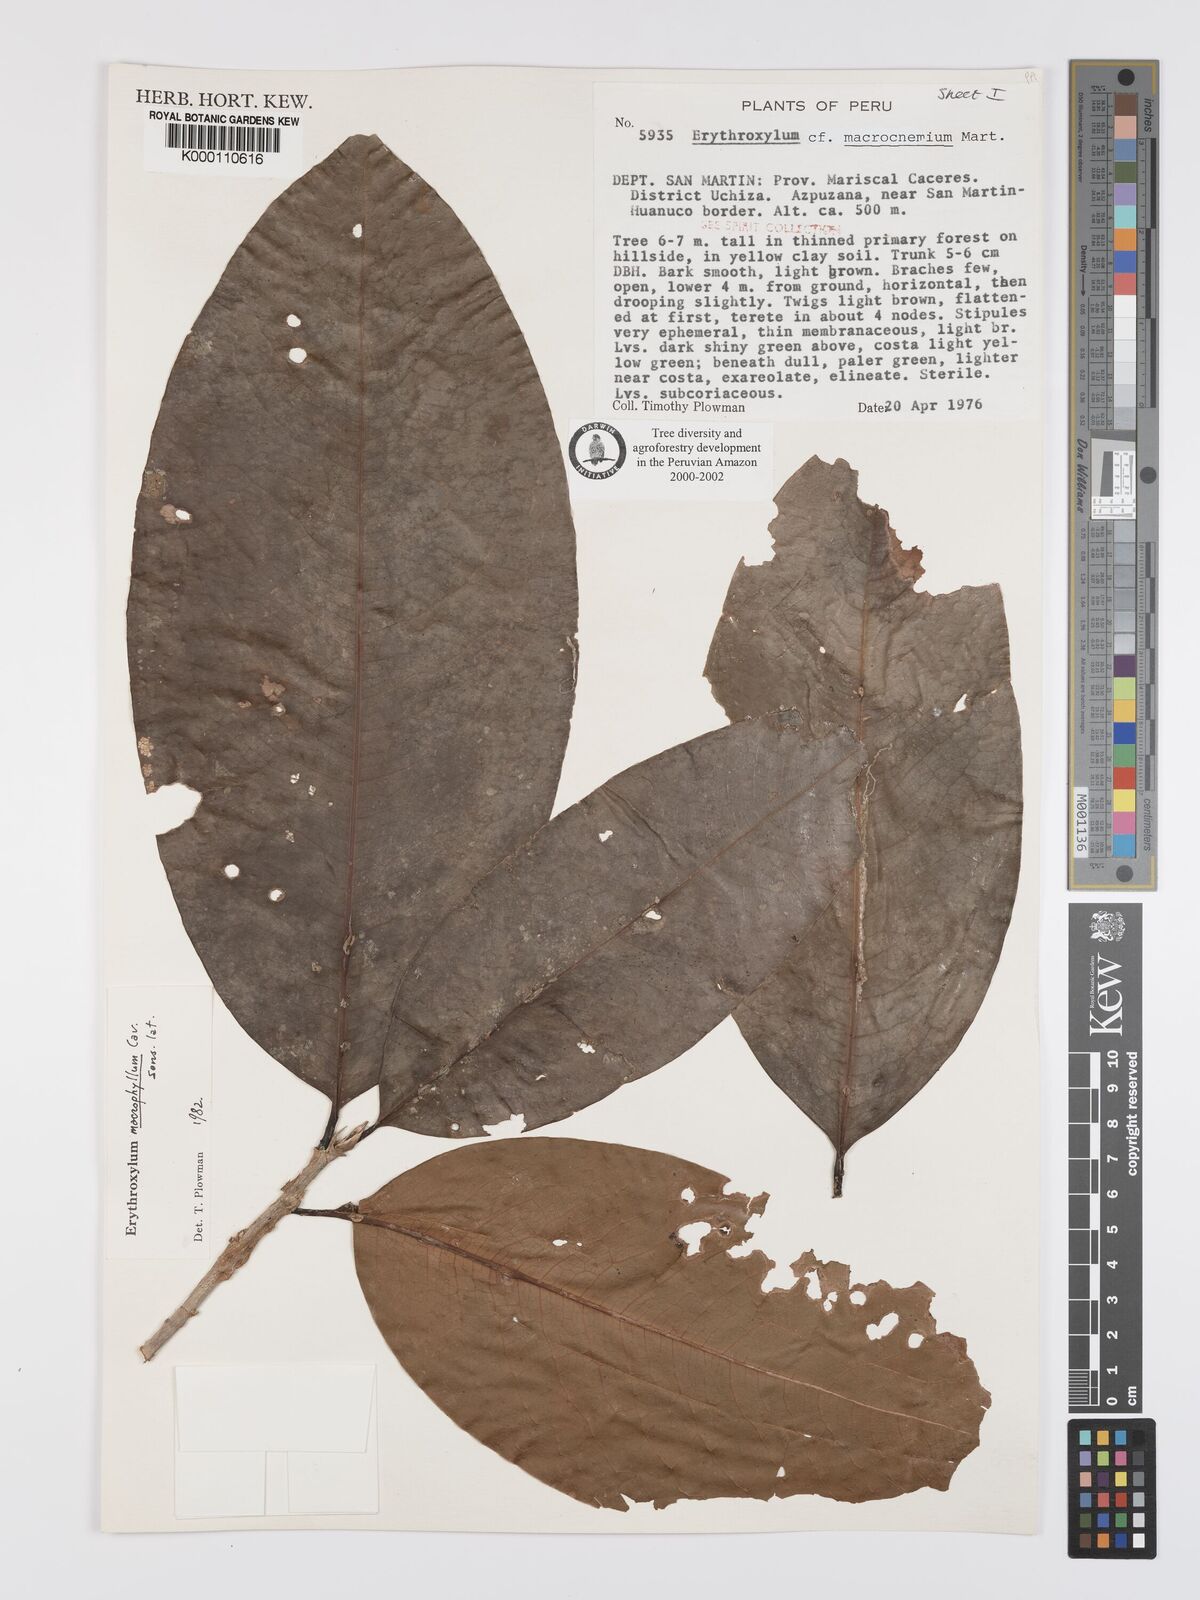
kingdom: Plantae
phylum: Tracheophyta
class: Magnoliopsida
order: Malpighiales
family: Erythroxylaceae
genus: Erythroxylum
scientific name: Erythroxylum
